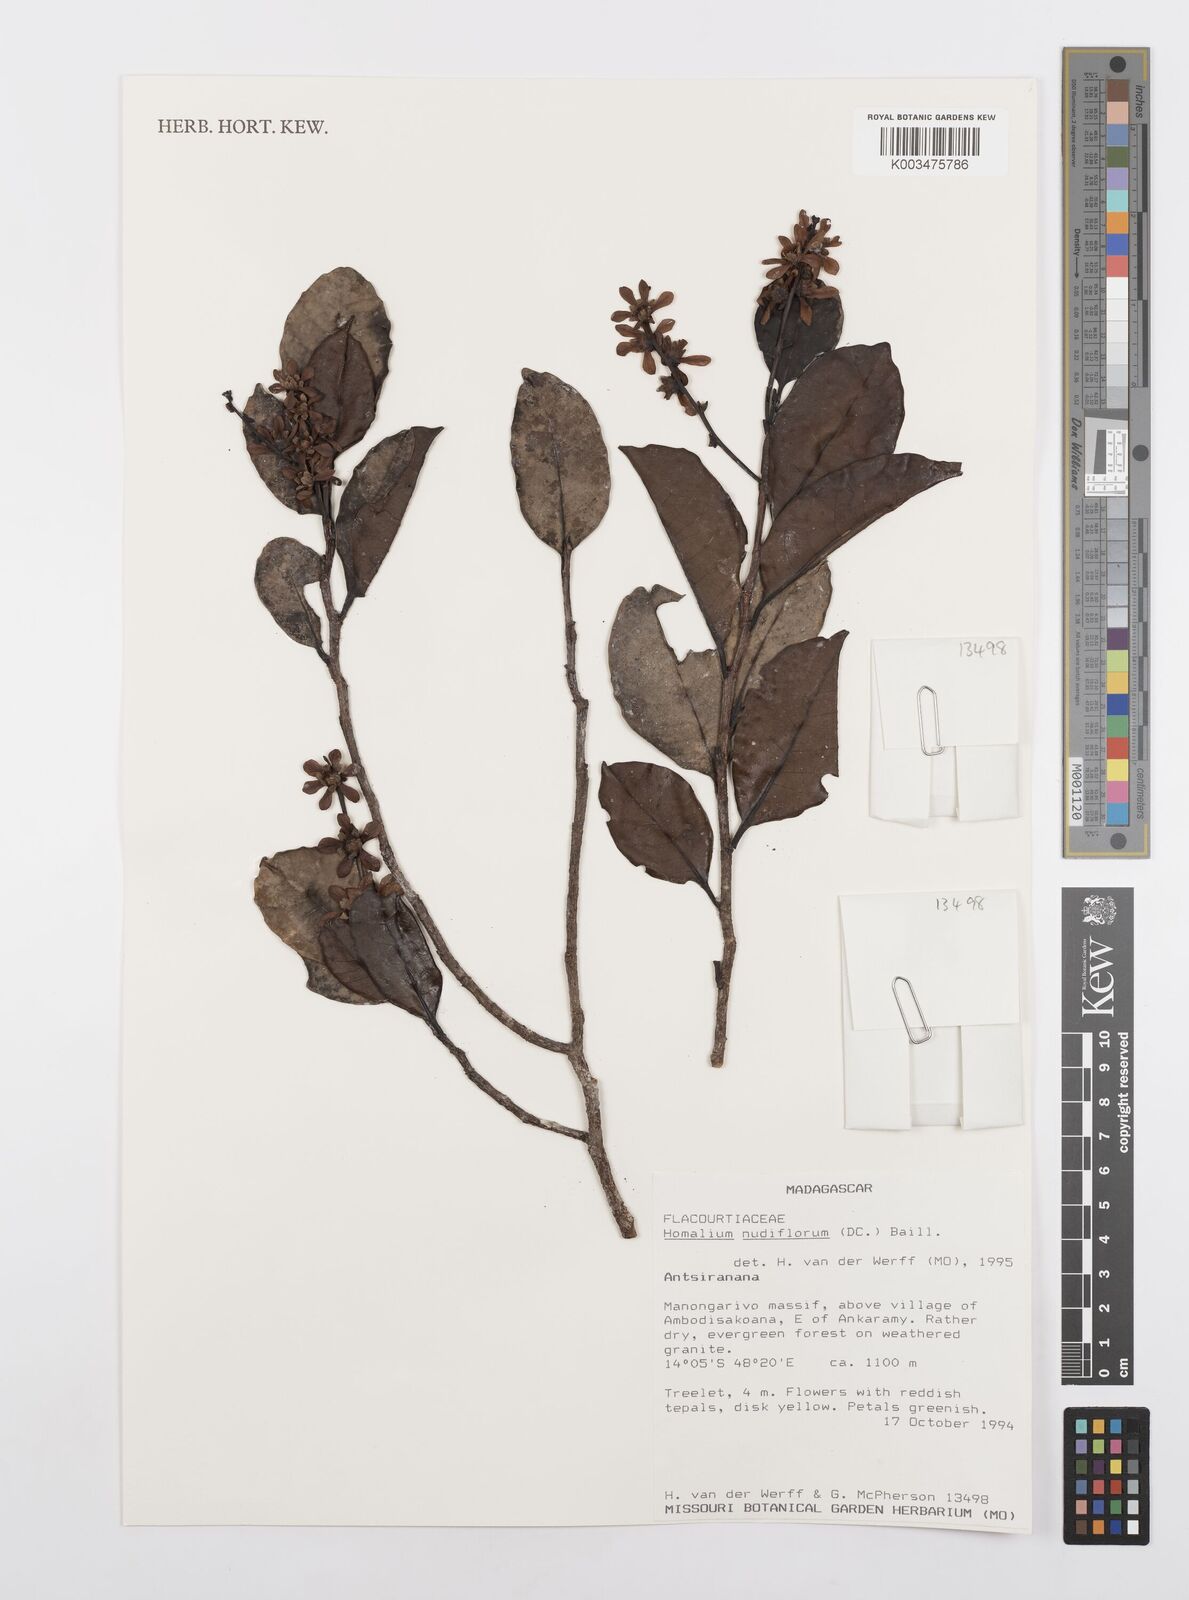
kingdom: Plantae
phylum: Tracheophyta
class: Magnoliopsida
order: Malpighiales
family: Salicaceae
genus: Homalium
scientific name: Homalium nudiflorum
